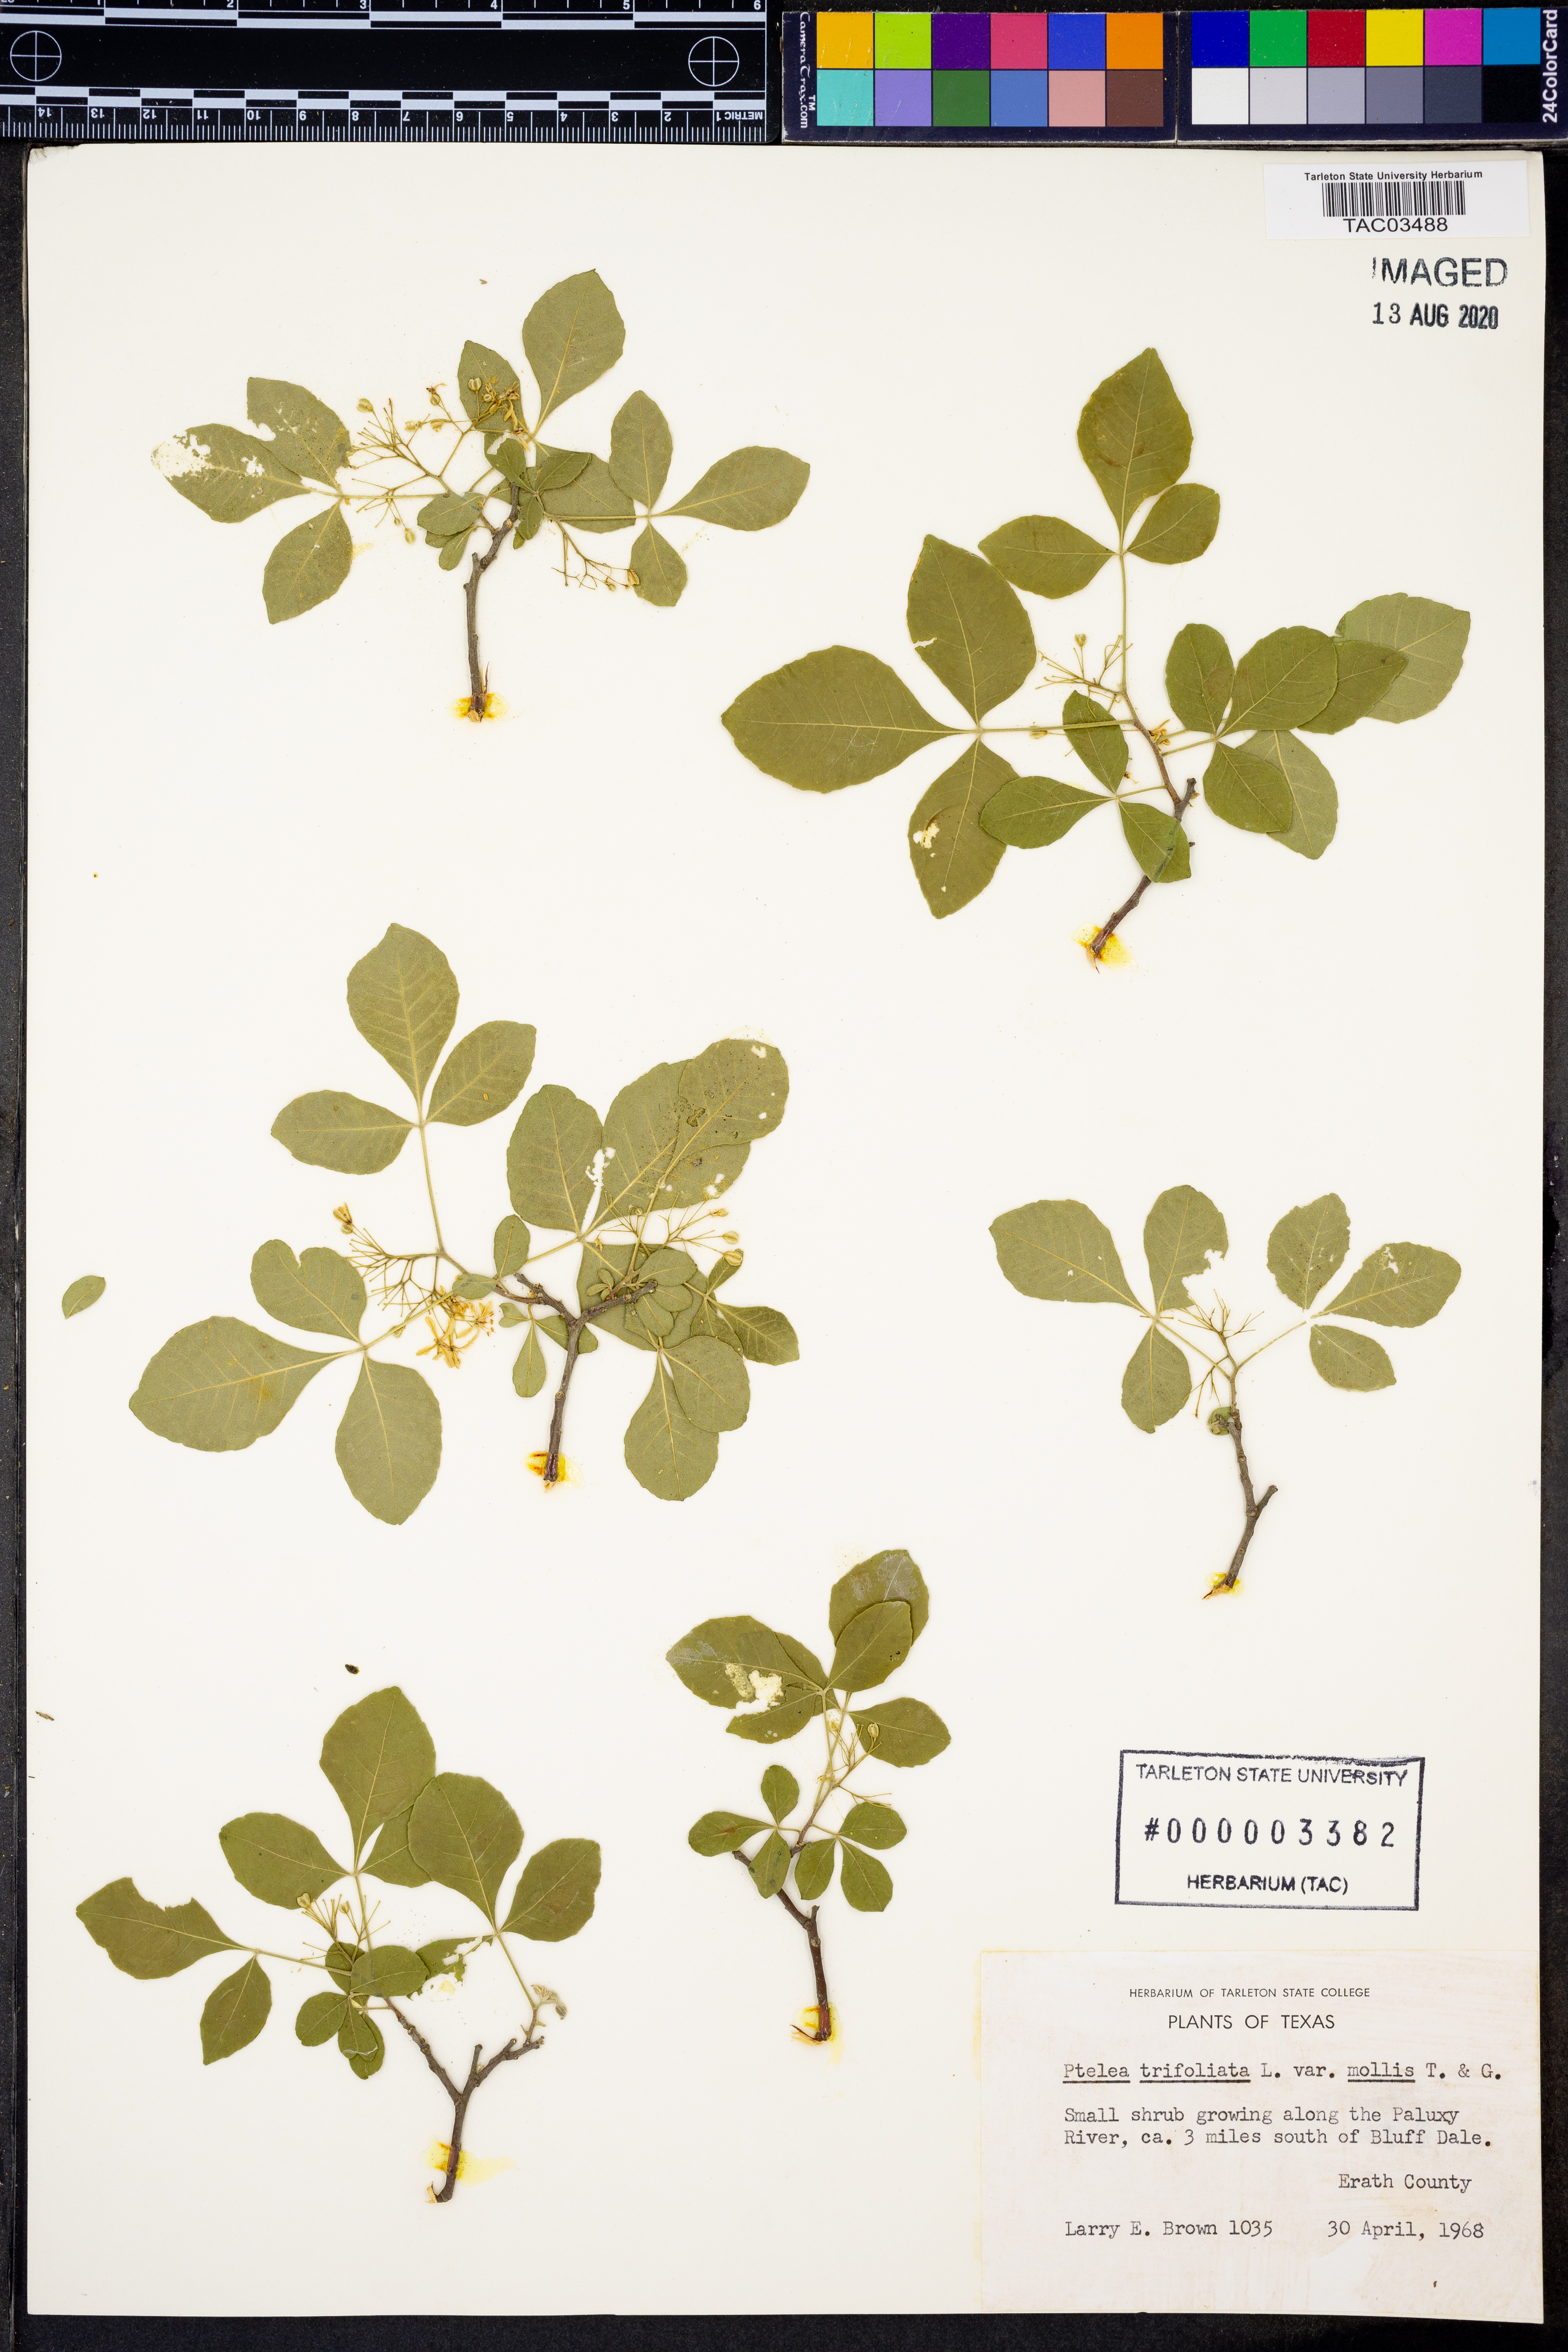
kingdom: Plantae
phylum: Tracheophyta
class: Magnoliopsida
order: Sapindales
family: Rutaceae
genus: Ptelea
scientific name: Ptelea trifoliata
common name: Common hop-tree
